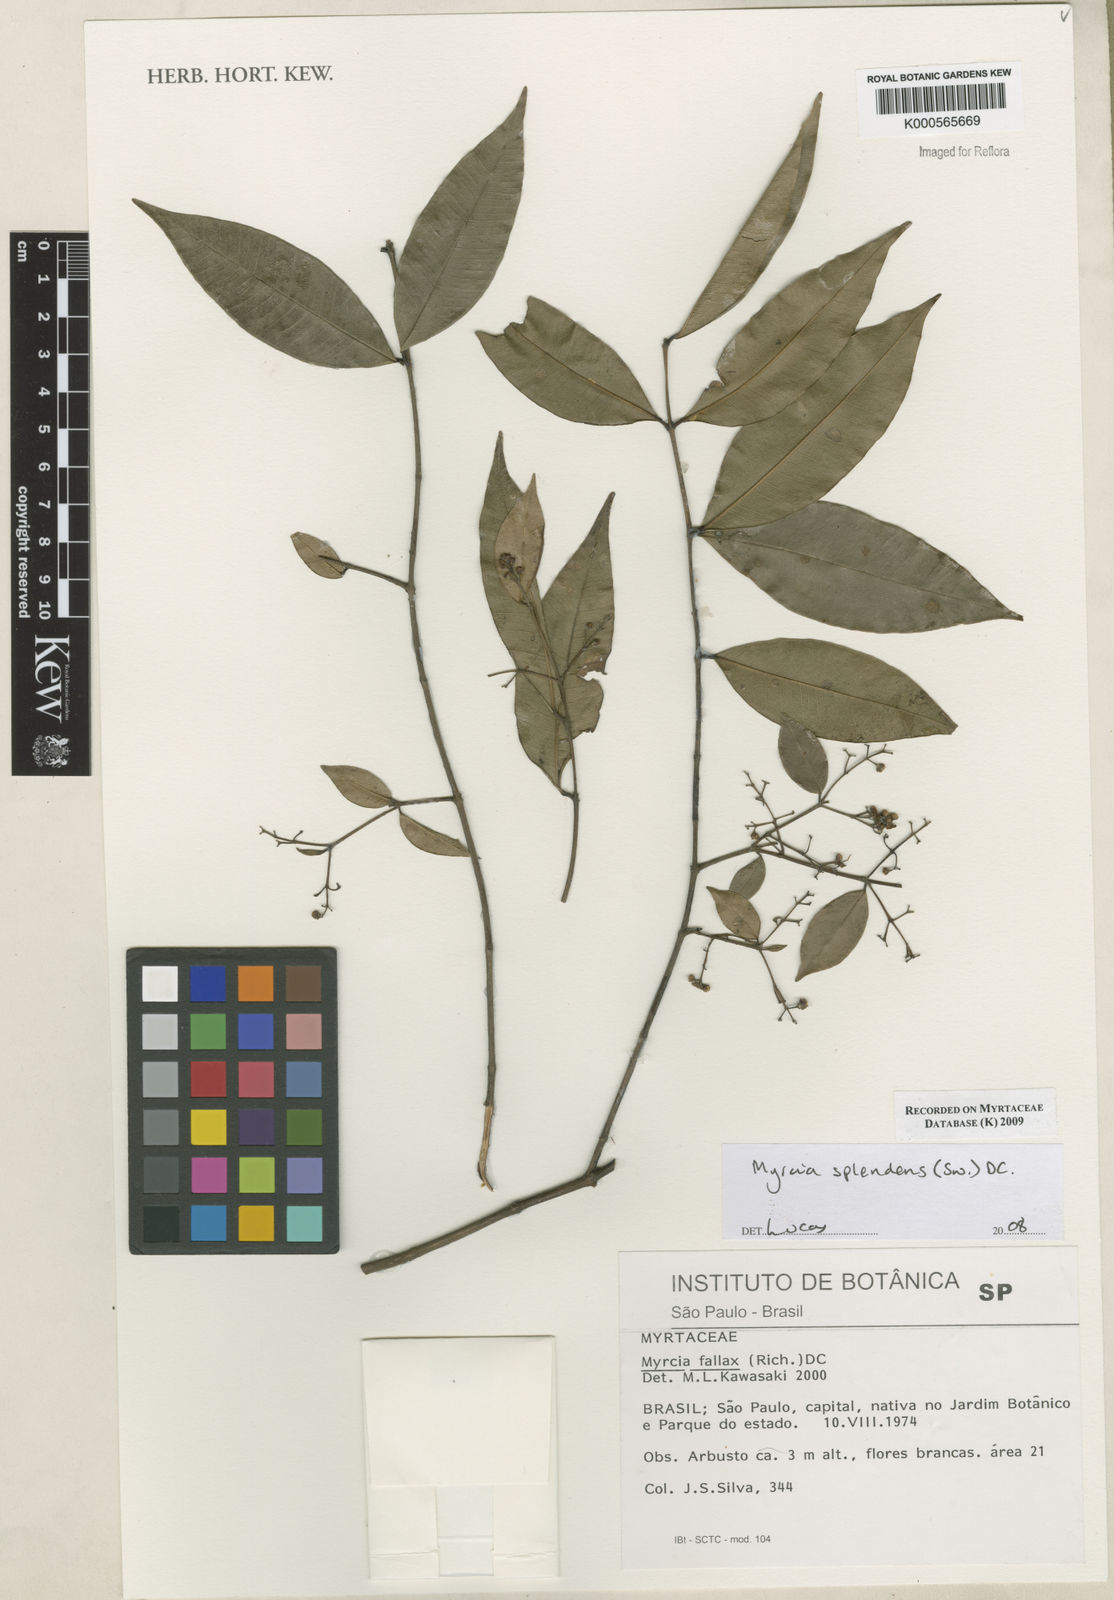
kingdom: Plantae
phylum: Tracheophyta
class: Magnoliopsida
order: Myrtales
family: Myrtaceae
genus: Myrcia
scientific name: Myrcia splendens
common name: Surinam cherry
